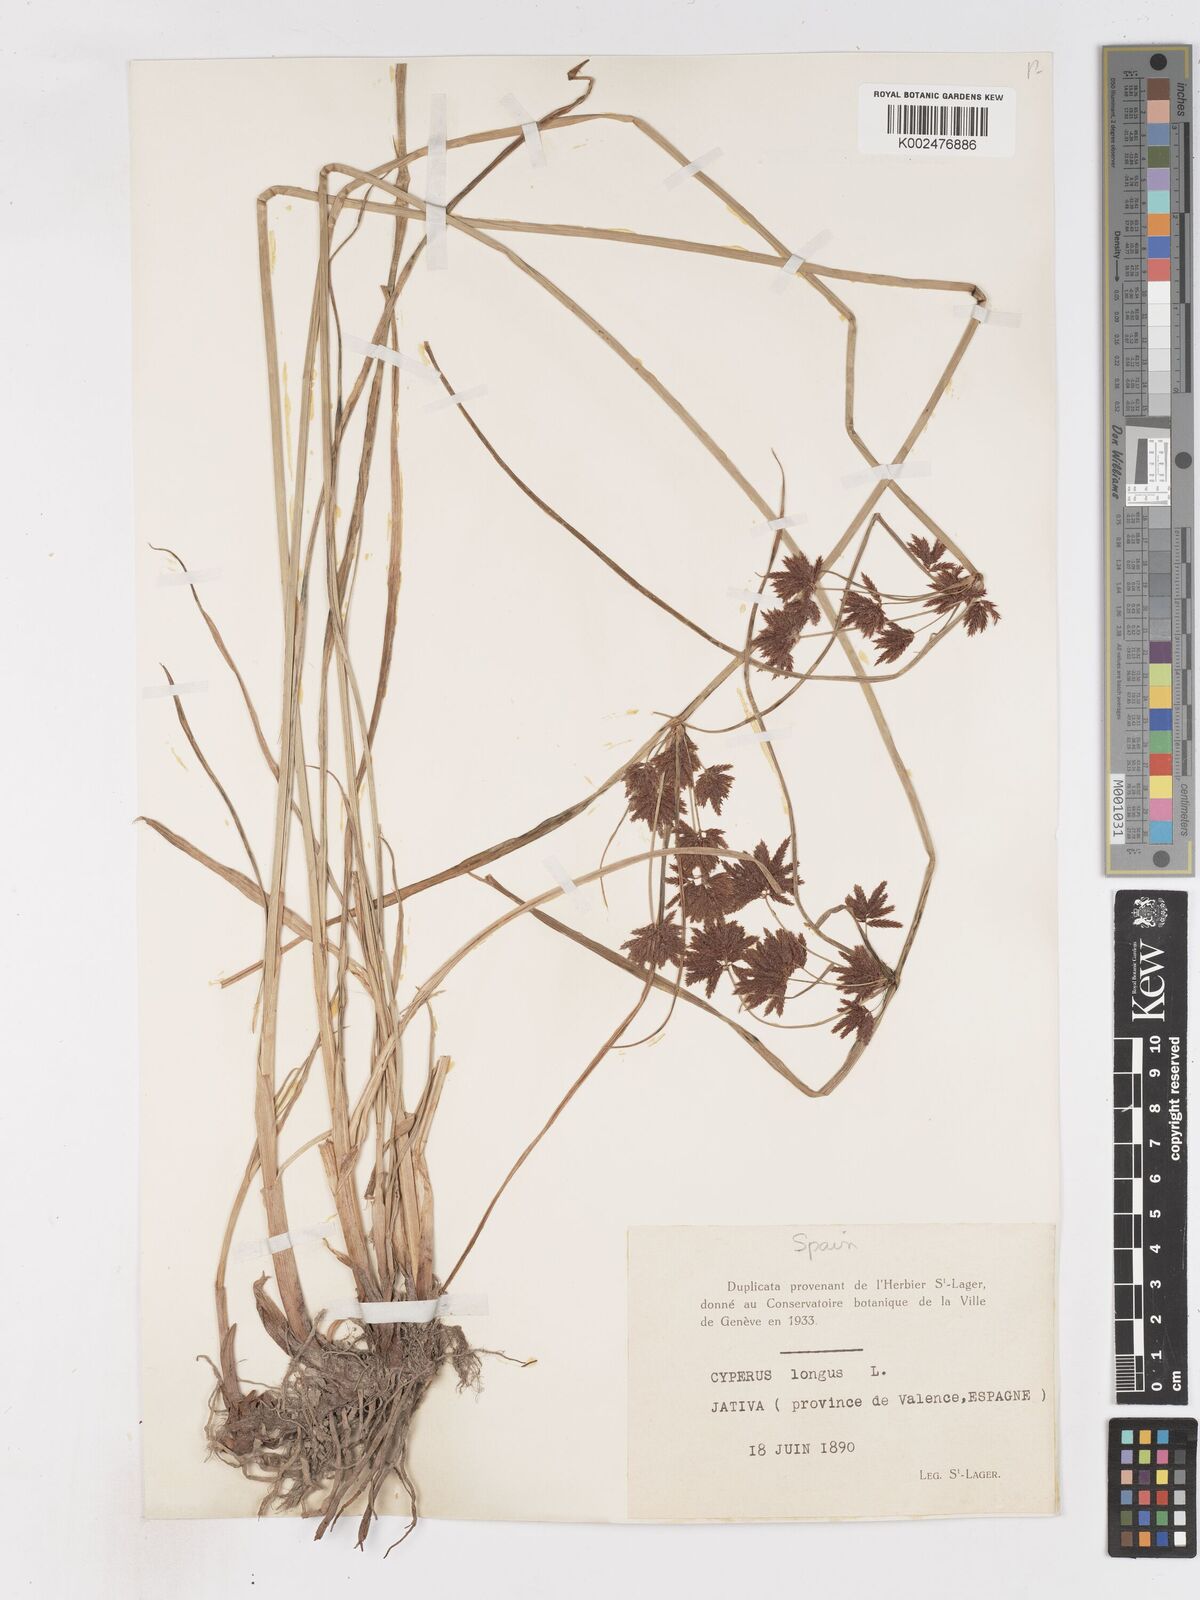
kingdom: Plantae
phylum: Tracheophyta
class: Liliopsida
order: Poales
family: Cyperaceae
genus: Cyperus
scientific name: Cyperus longus
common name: Galingale
